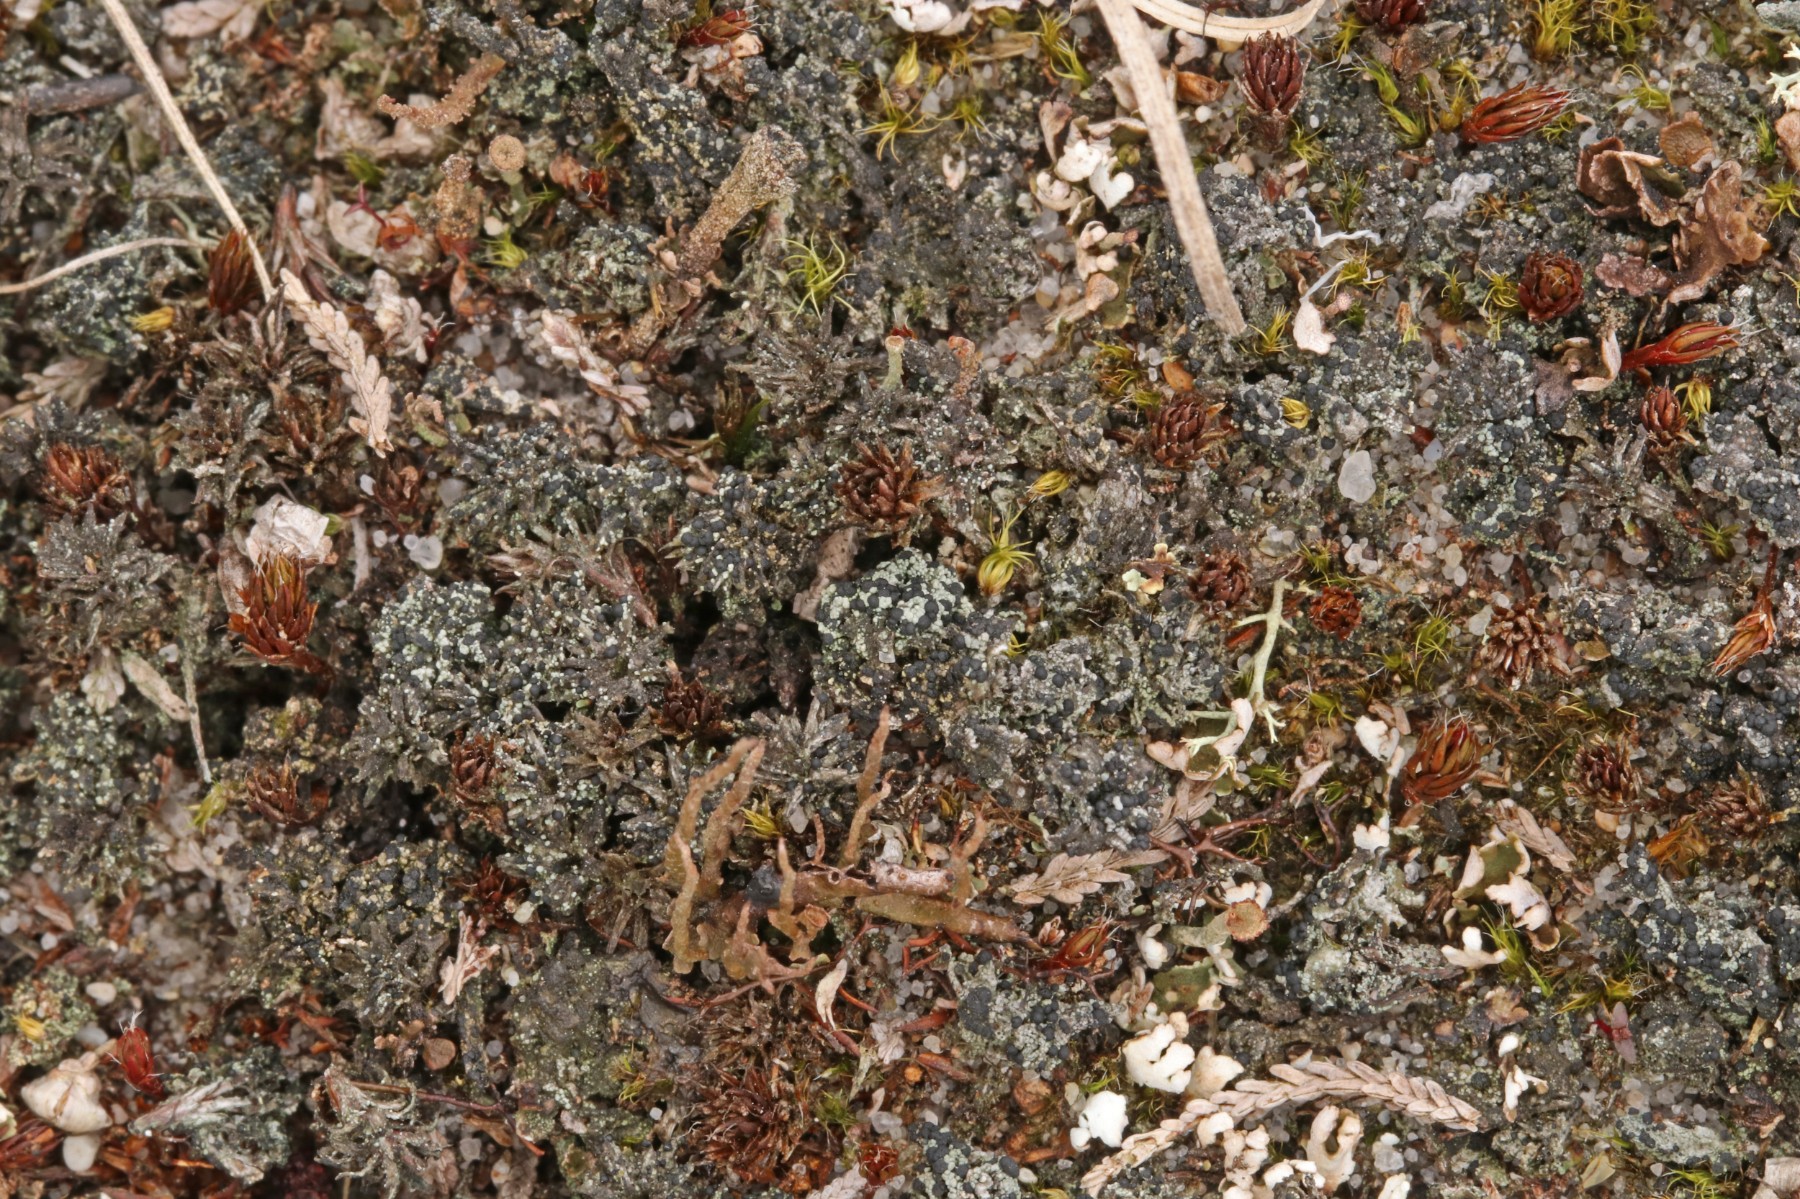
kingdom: Fungi
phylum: Ascomycota
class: Lecanoromycetes
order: Lecanorales
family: Byssolomataceae
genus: Micarea
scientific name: Micarea lignaria
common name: tørve-knaplav
